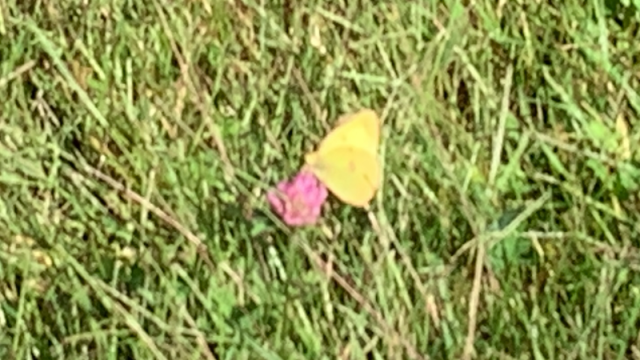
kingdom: Animalia
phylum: Arthropoda
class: Insecta
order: Lepidoptera
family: Pieridae
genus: Colias
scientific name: Colias philodice
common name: Clouded Sulphur
